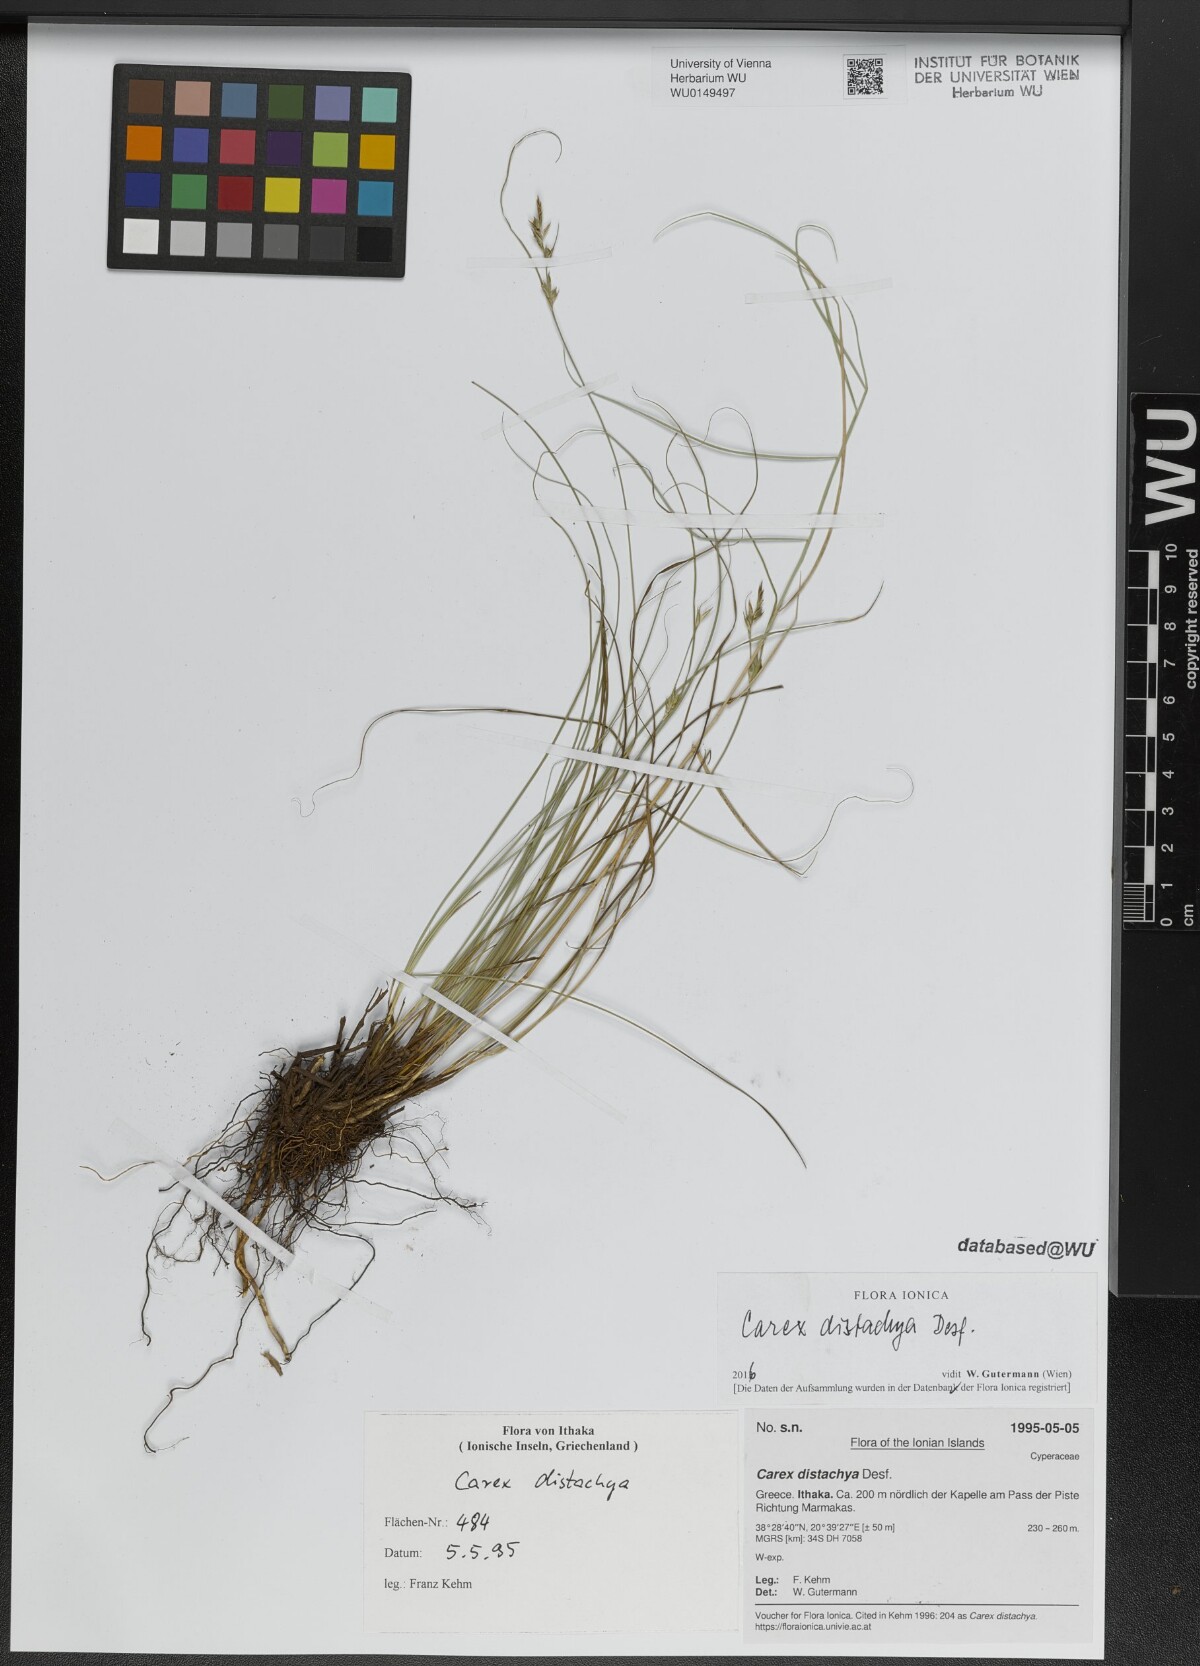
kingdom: Plantae
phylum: Tracheophyta
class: Liliopsida
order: Poales
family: Cyperaceae
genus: Carex
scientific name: Carex distachya
